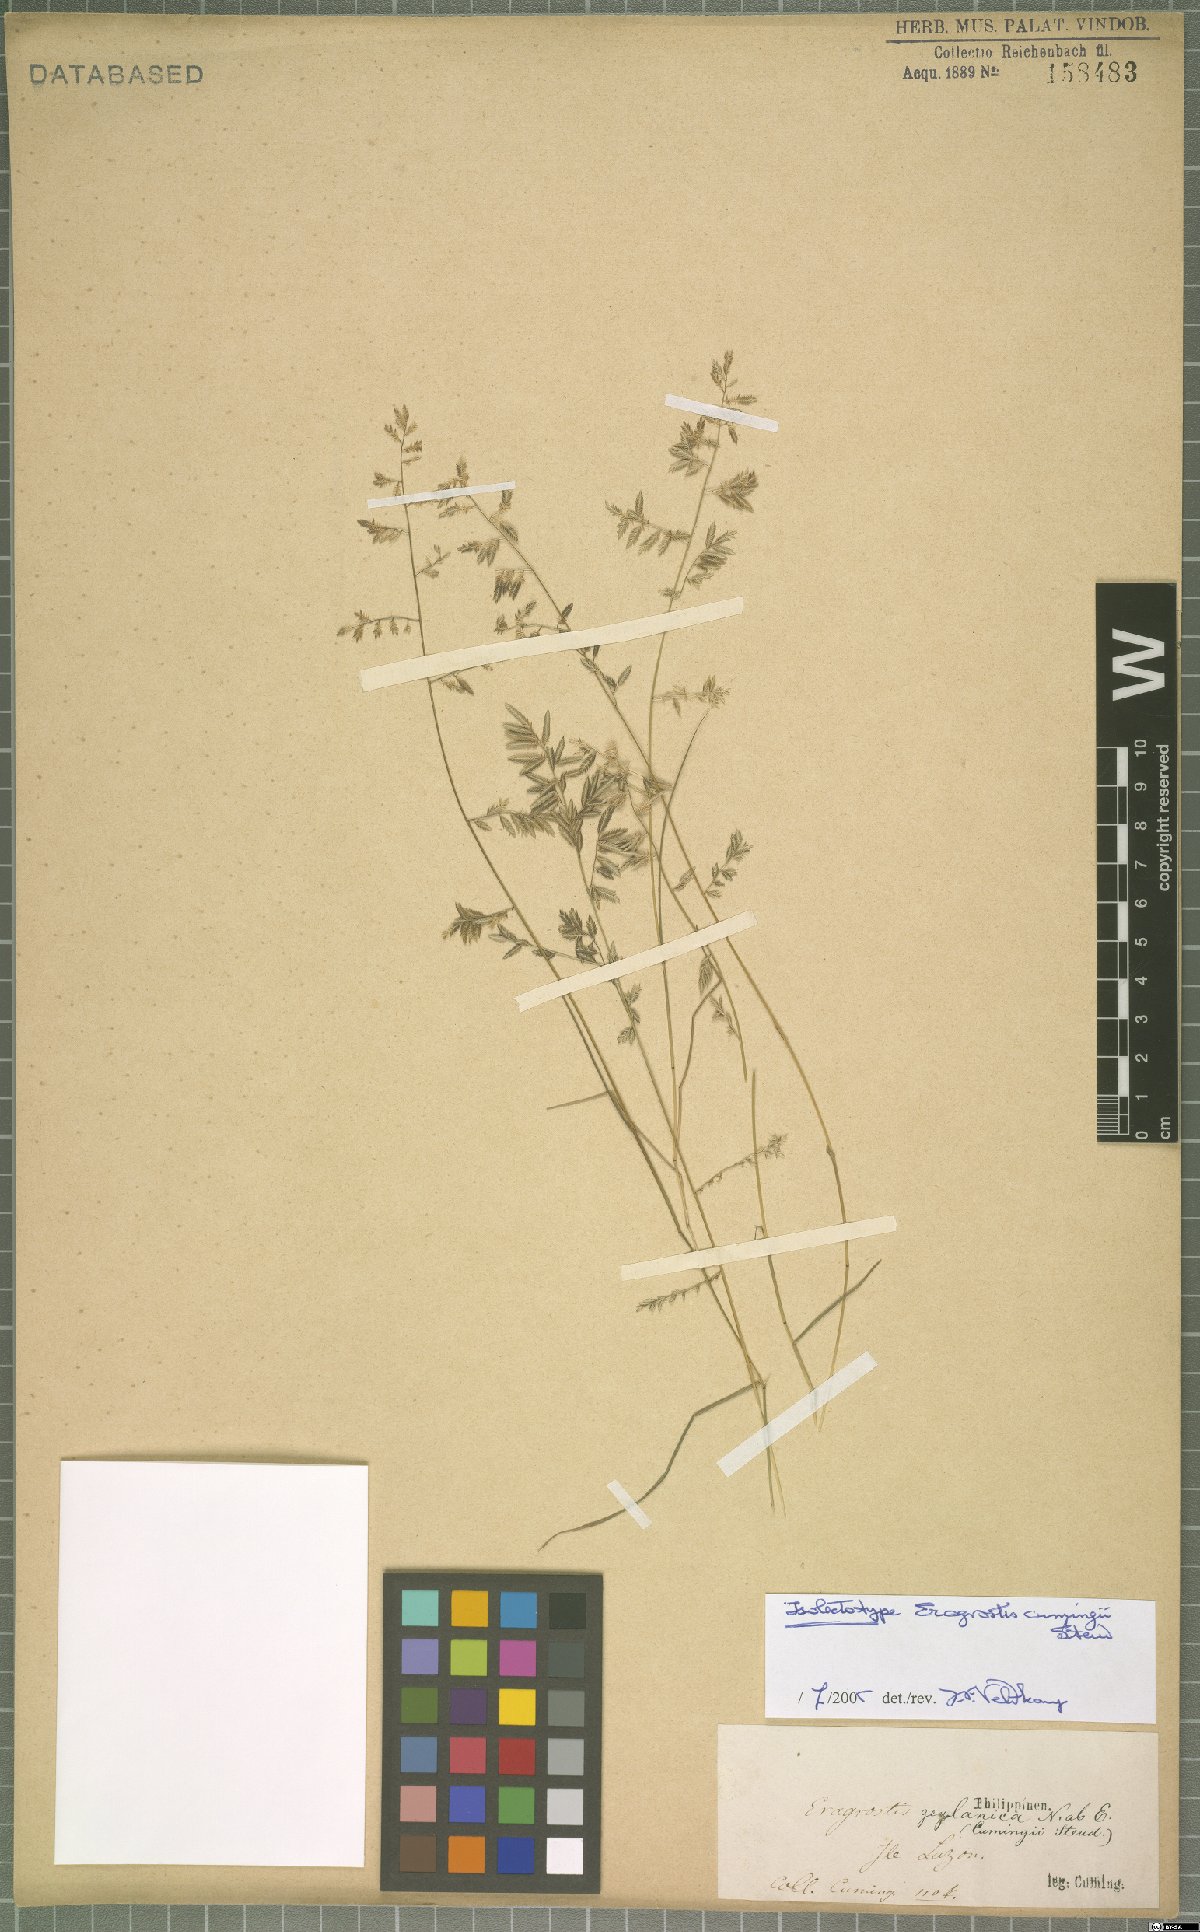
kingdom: Plantae
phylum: Tracheophyta
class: Liliopsida
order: Poales
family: Poaceae
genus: Eragrostis
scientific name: Eragrostis cumingii
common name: Cuming's lovegrass
